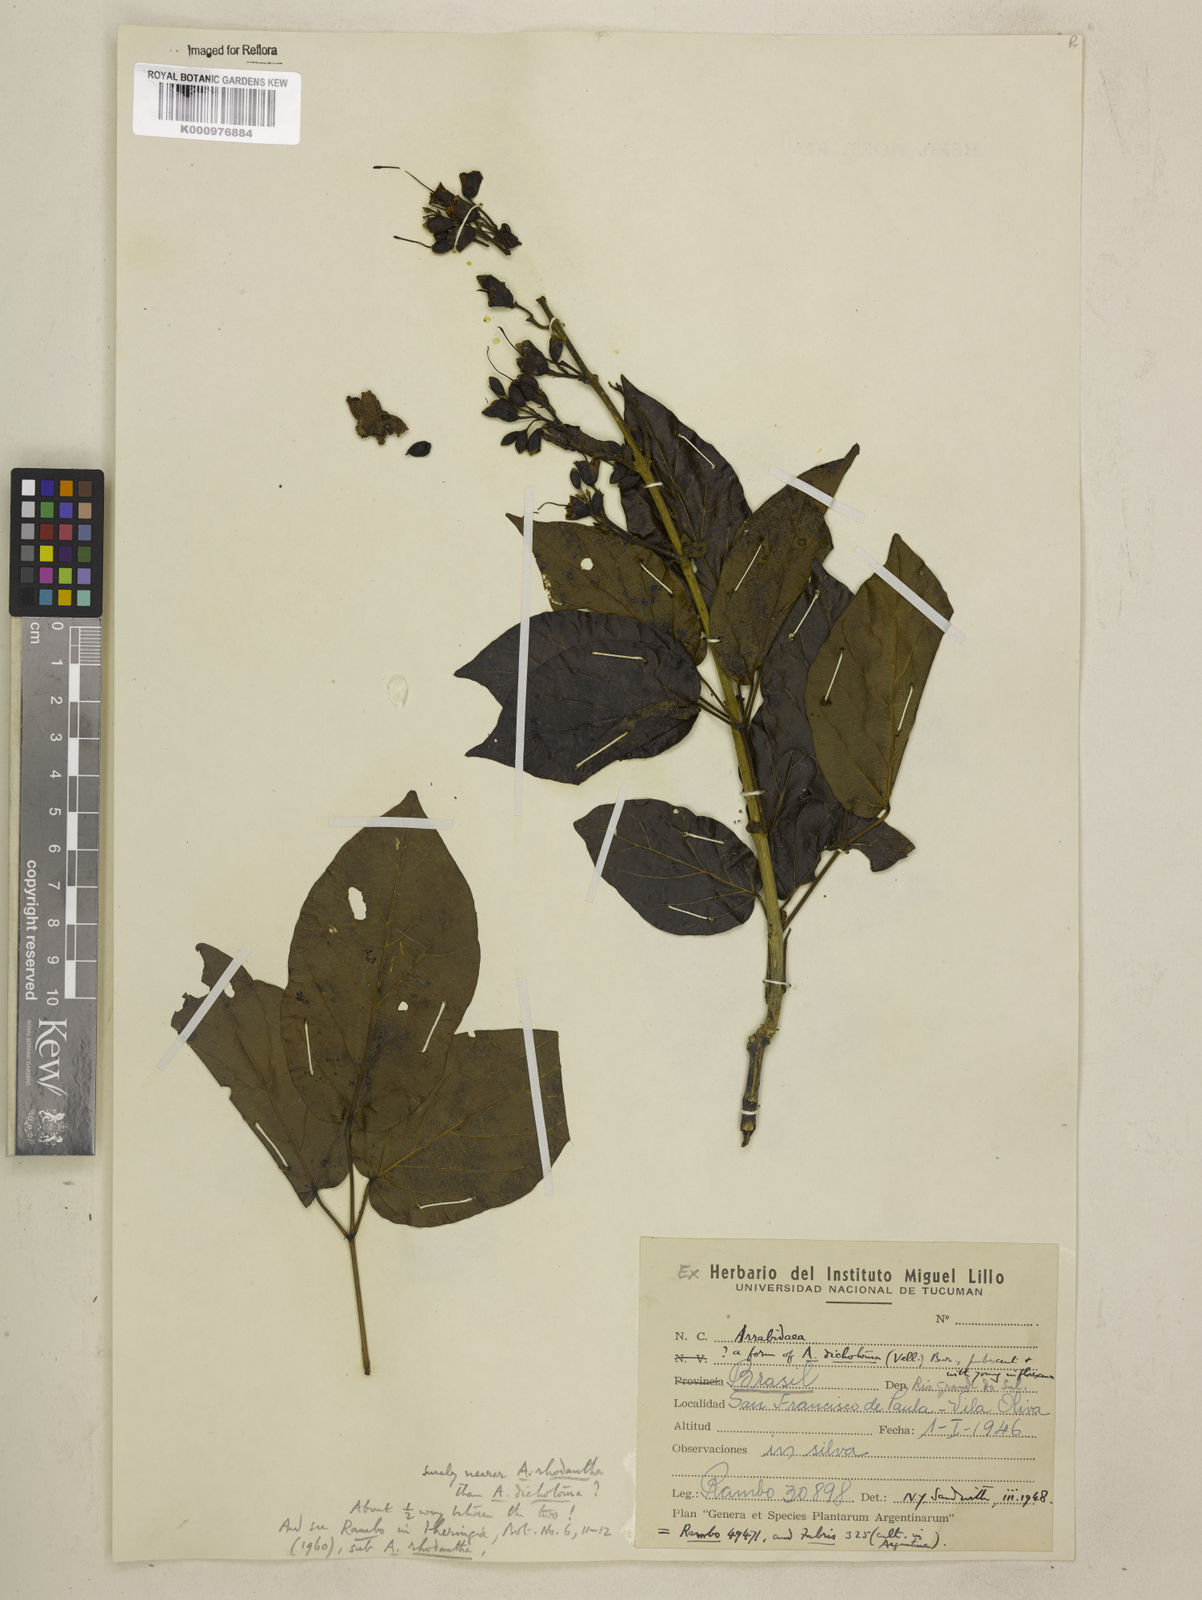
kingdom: Plantae
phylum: Tracheophyta
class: Magnoliopsida
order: Lamiales
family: Bignoniaceae
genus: Tanaecium
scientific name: Tanaecium dichotomum
